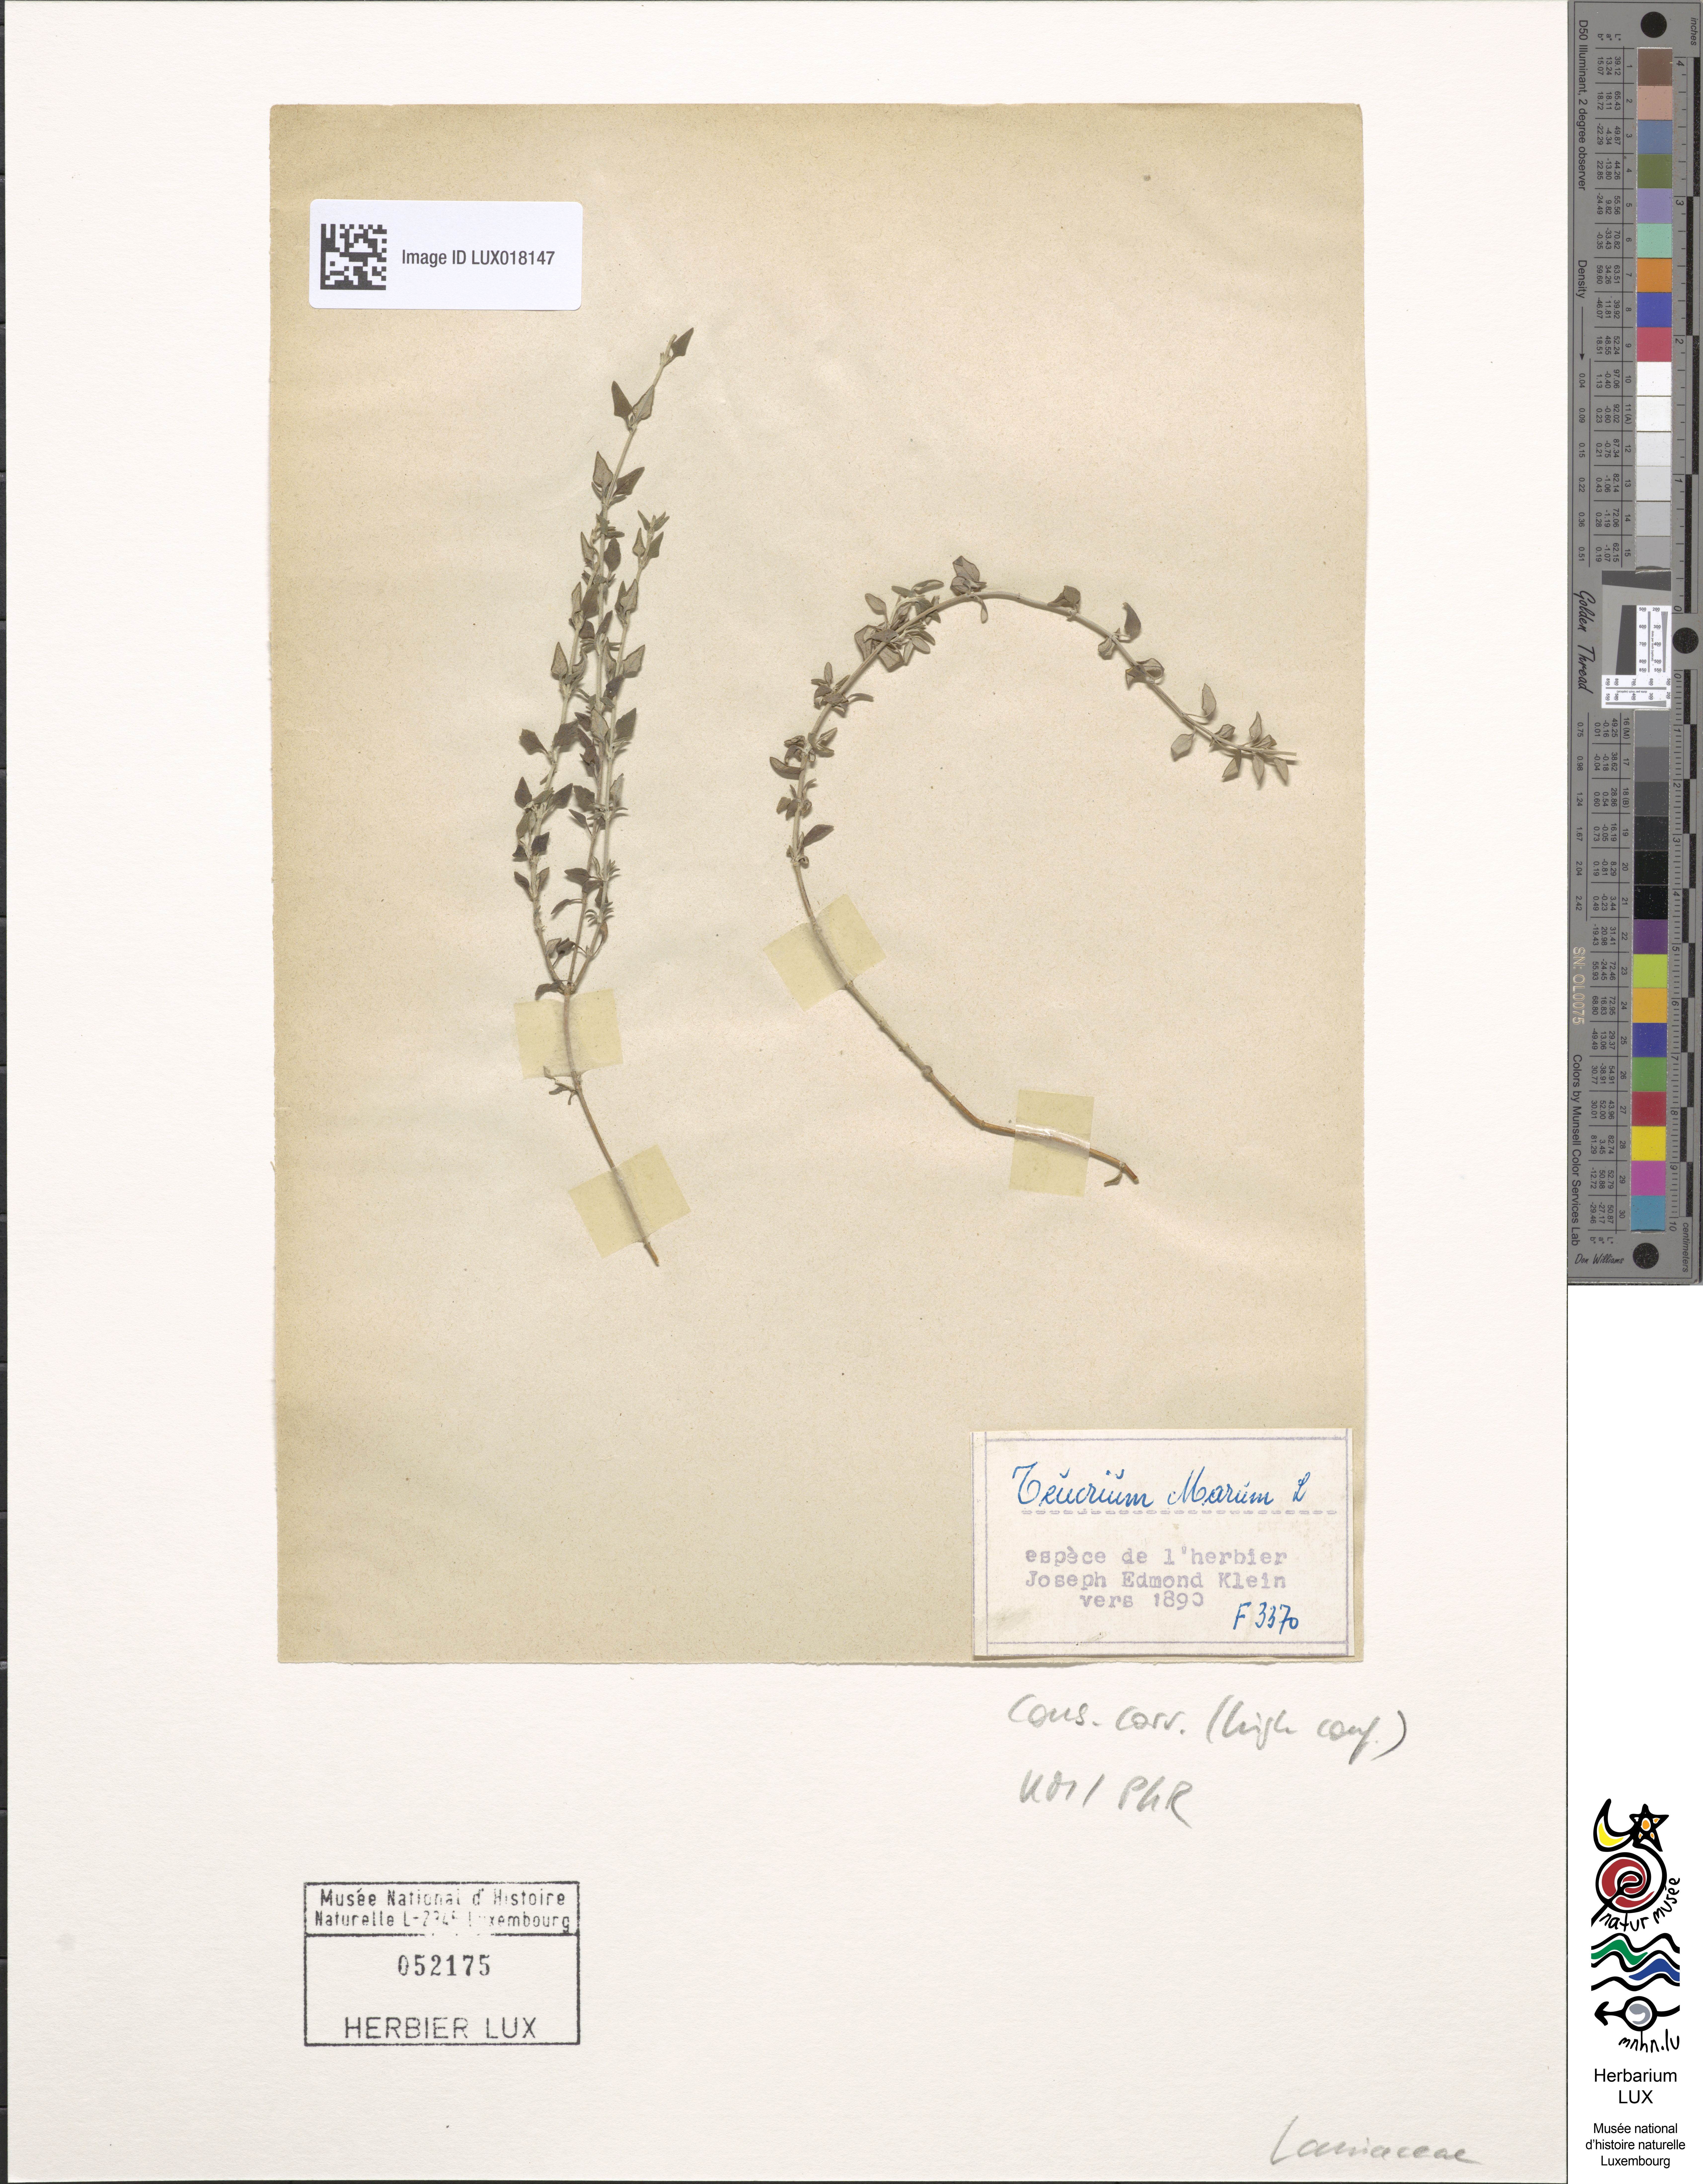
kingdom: Plantae
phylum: Tracheophyta
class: Magnoliopsida
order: Lamiales
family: Lamiaceae
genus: Teucrium
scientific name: Teucrium marum
